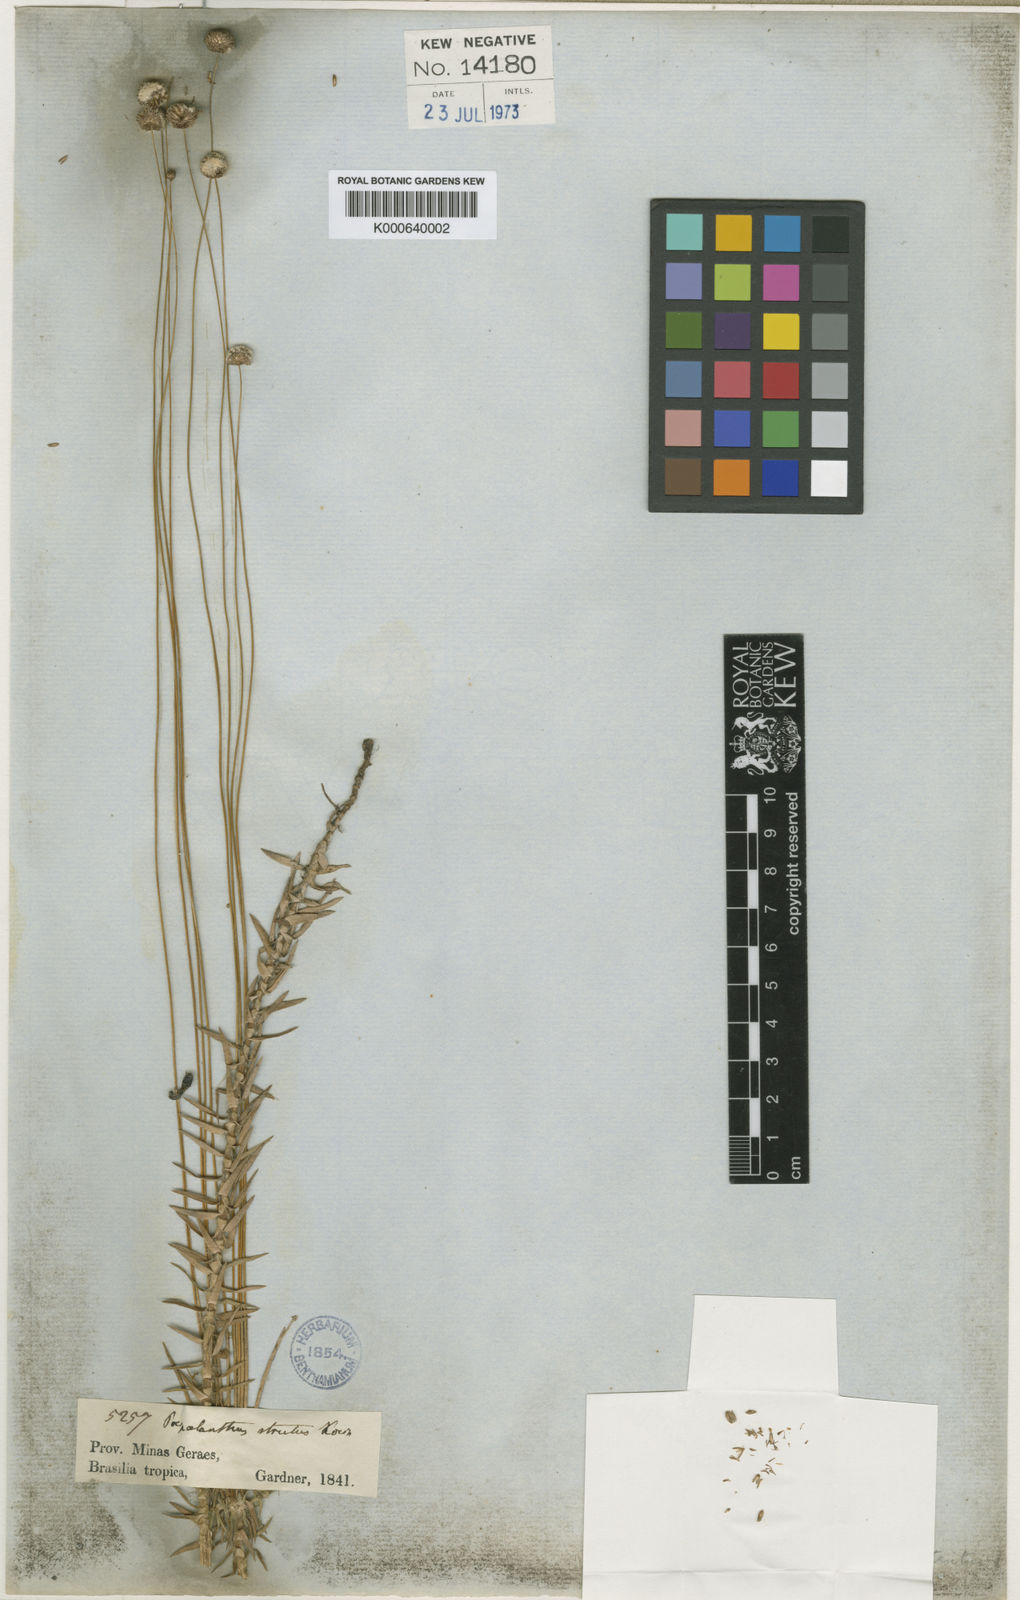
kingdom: Plantae
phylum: Tracheophyta
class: Liliopsida
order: Poales
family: Eriocaulaceae
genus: Paepalanthus
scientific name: Paepalanthus
